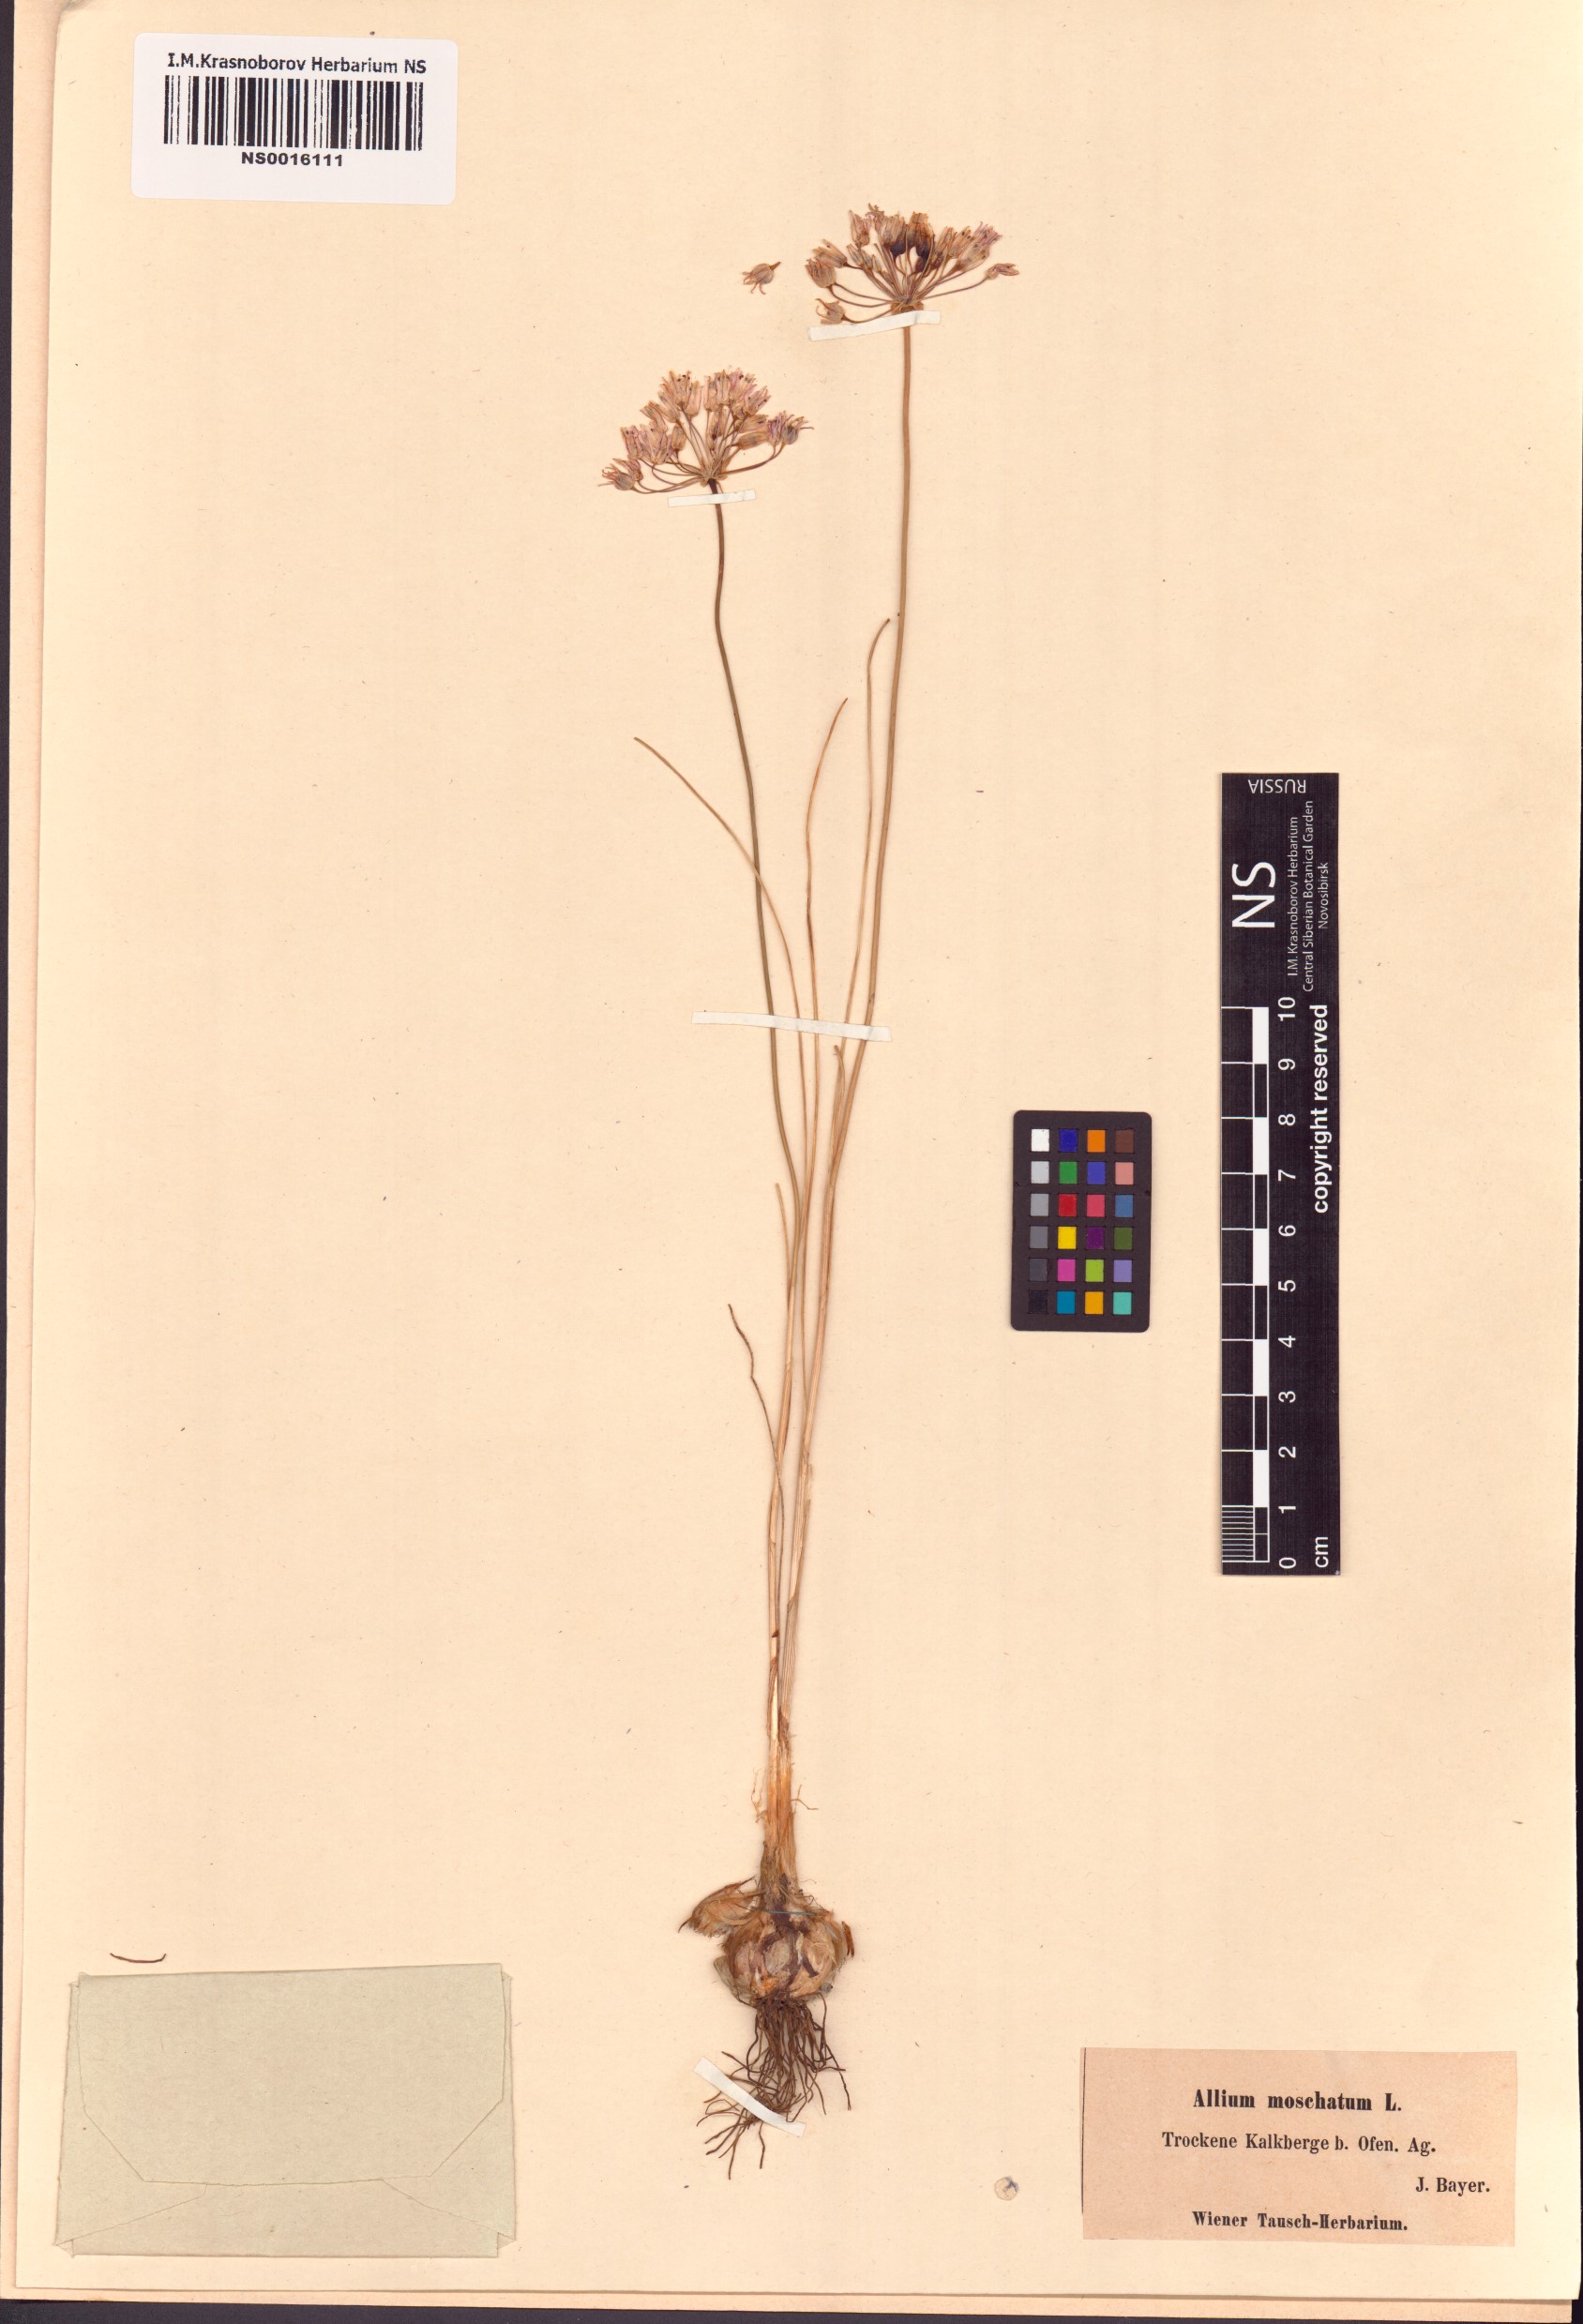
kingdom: Plantae
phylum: Tracheophyta
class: Liliopsida
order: Asparagales
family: Amaryllidaceae
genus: Allium
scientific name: Allium moschatum
